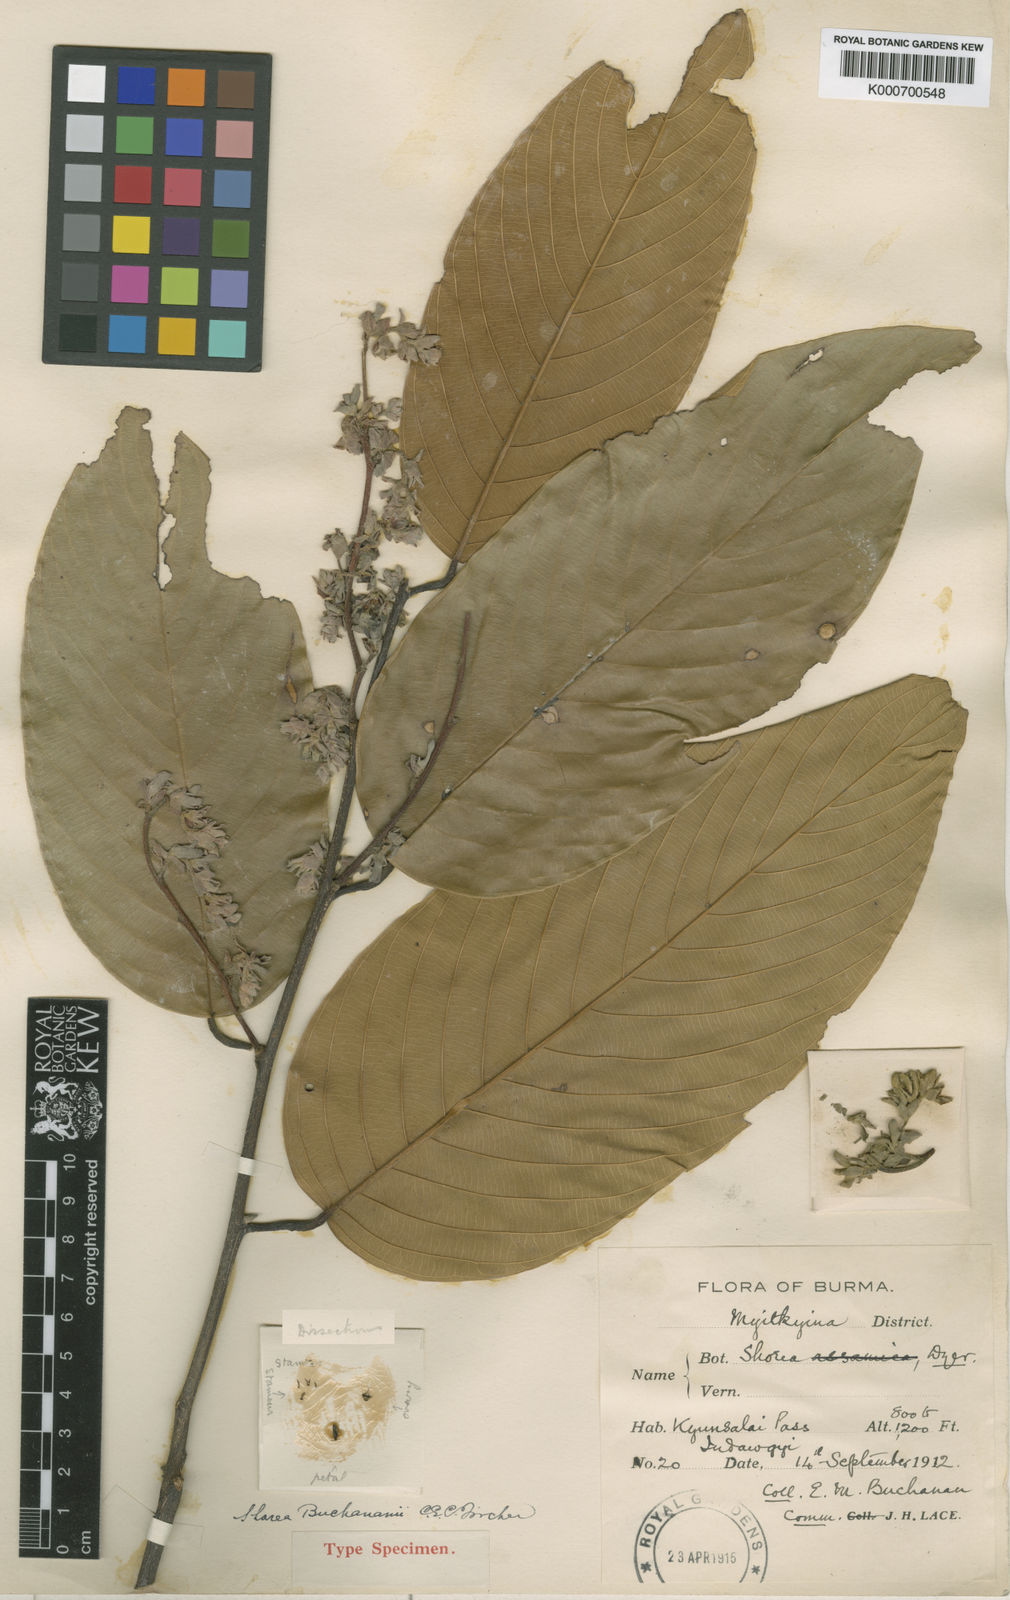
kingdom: Plantae
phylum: Tracheophyta
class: Magnoliopsida
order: Malvales
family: Dipterocarpaceae
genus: Parashorea
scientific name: Parashorea buchananii
